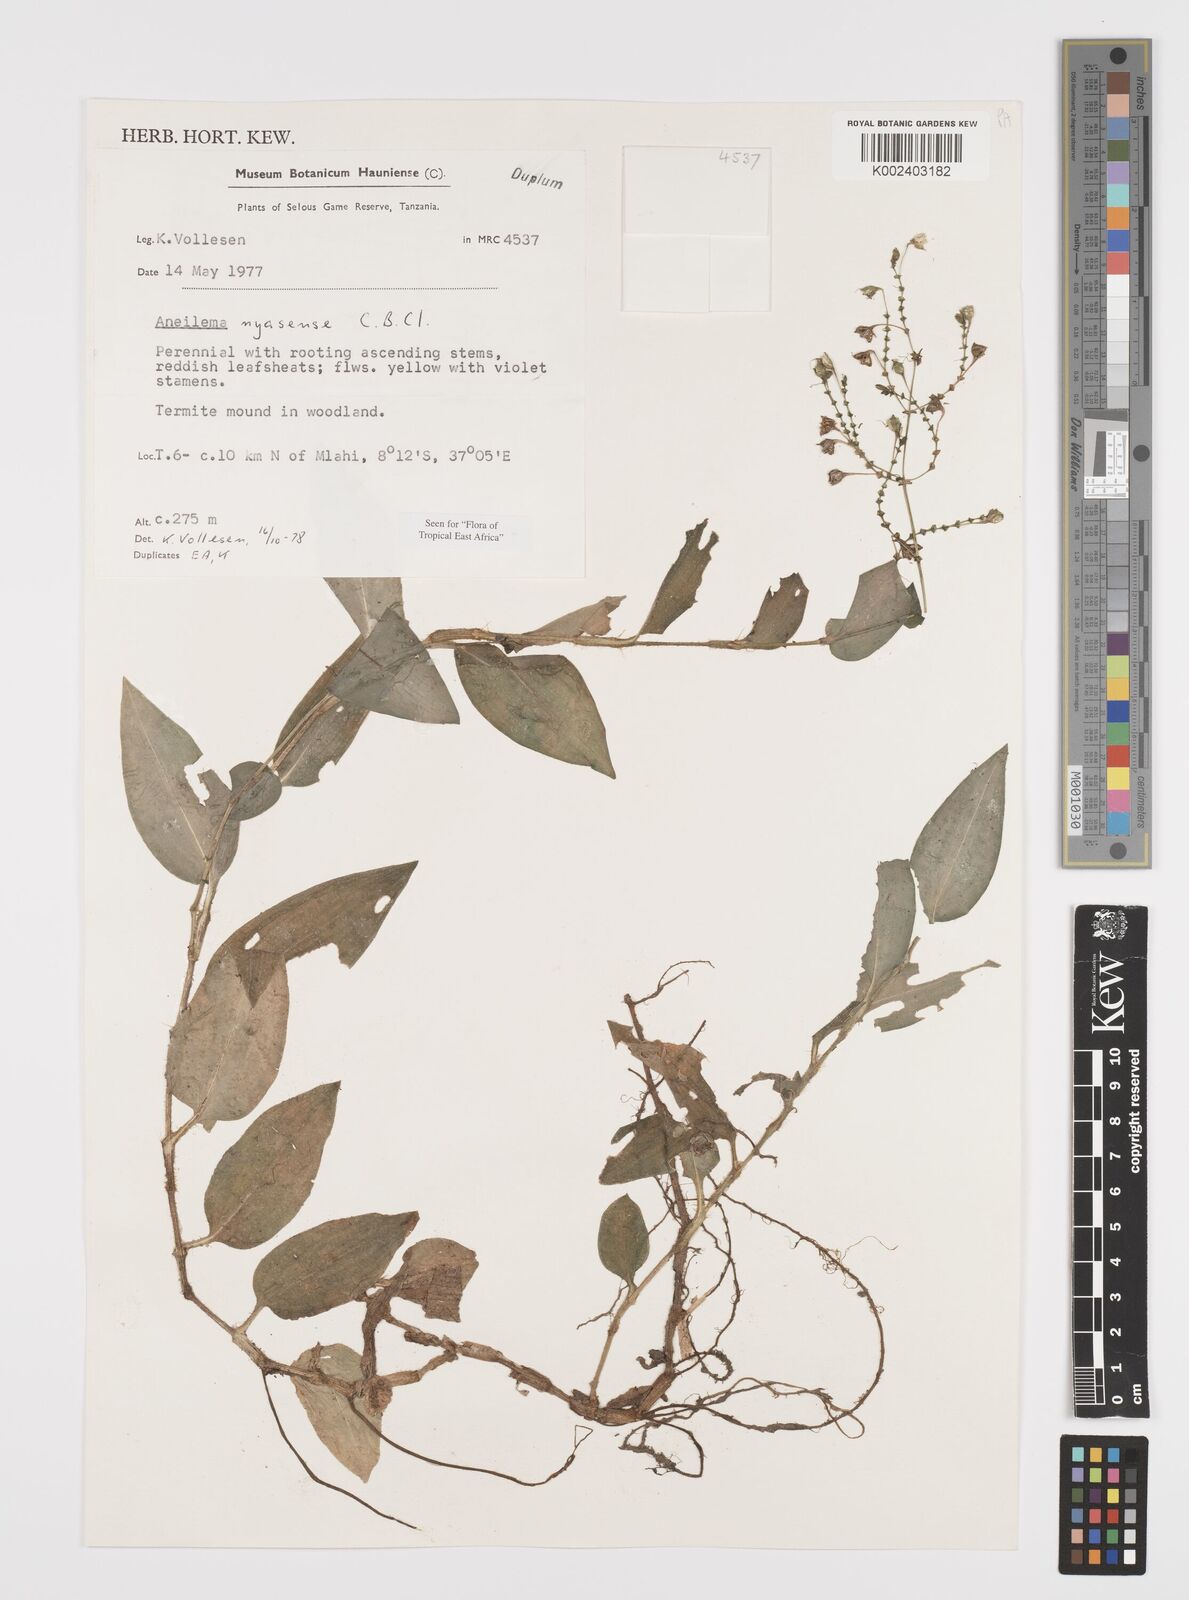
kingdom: Plantae
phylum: Tracheophyta
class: Liliopsida
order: Commelinales
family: Commelinaceae
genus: Aneilema
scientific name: Aneilema nyasense
